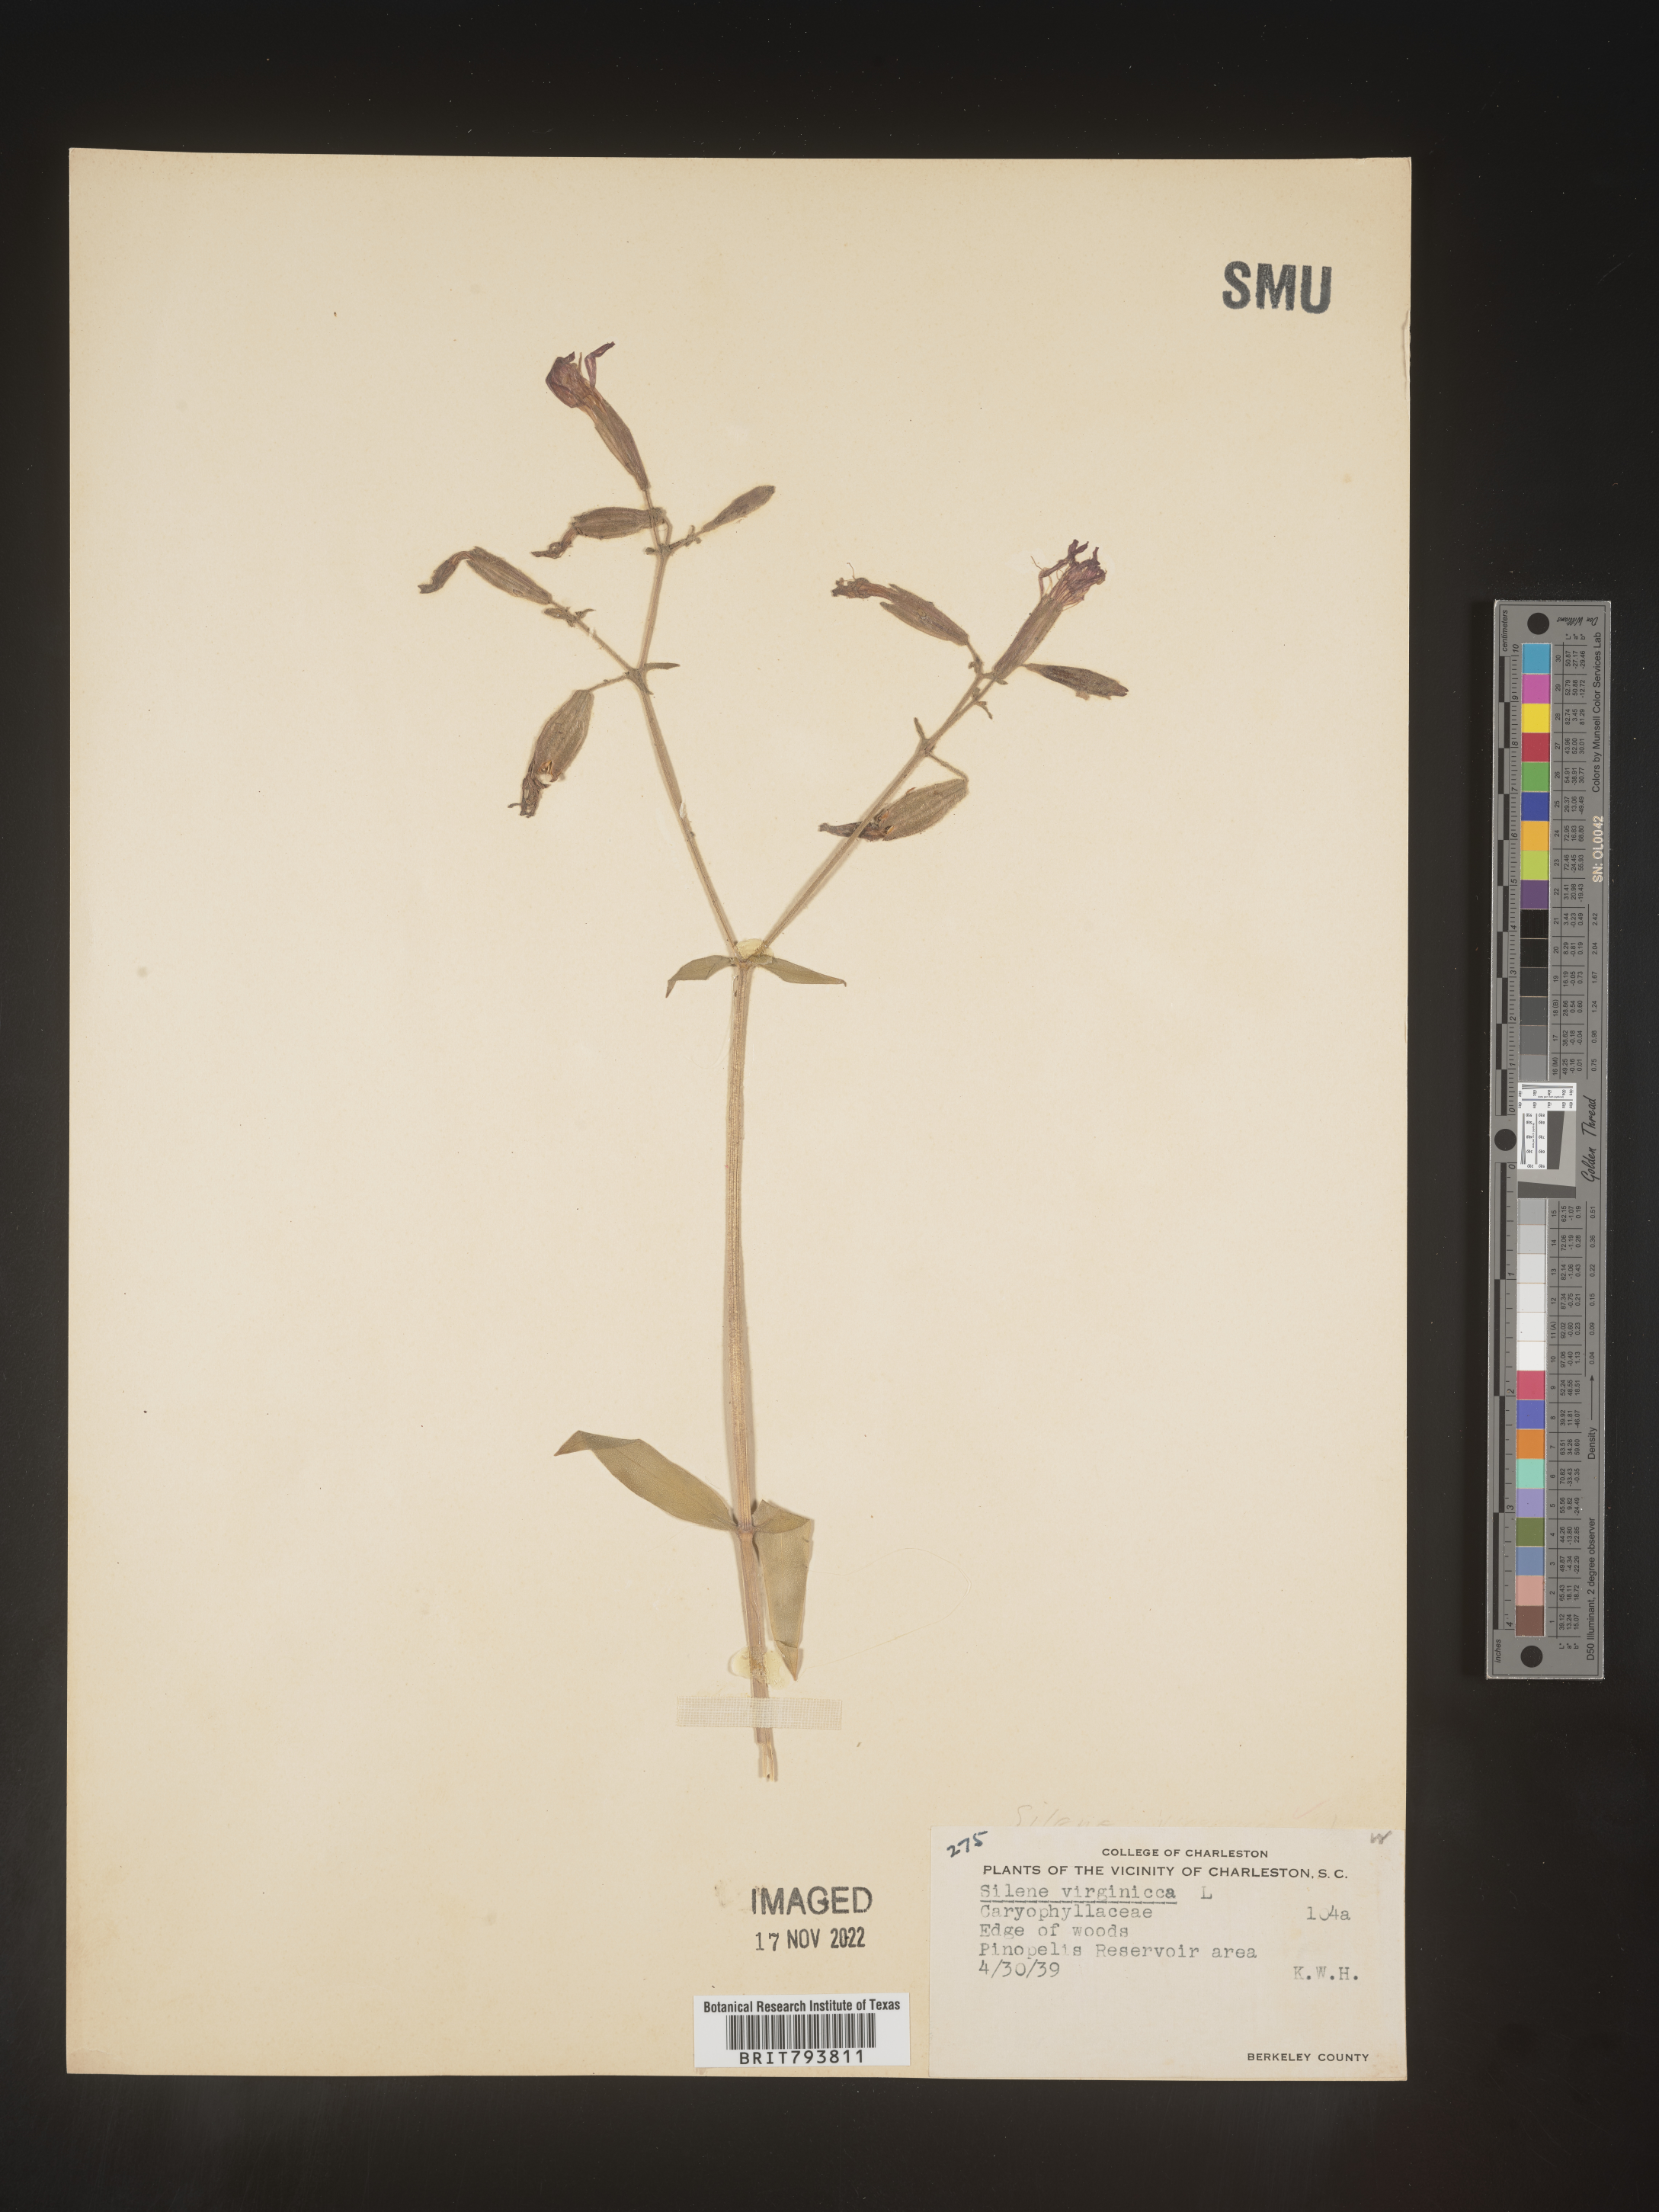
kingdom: Plantae
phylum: Tracheophyta
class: Magnoliopsida
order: Caryophyllales
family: Caryophyllaceae
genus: Silene
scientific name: Silene virginica
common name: Fire-pink
